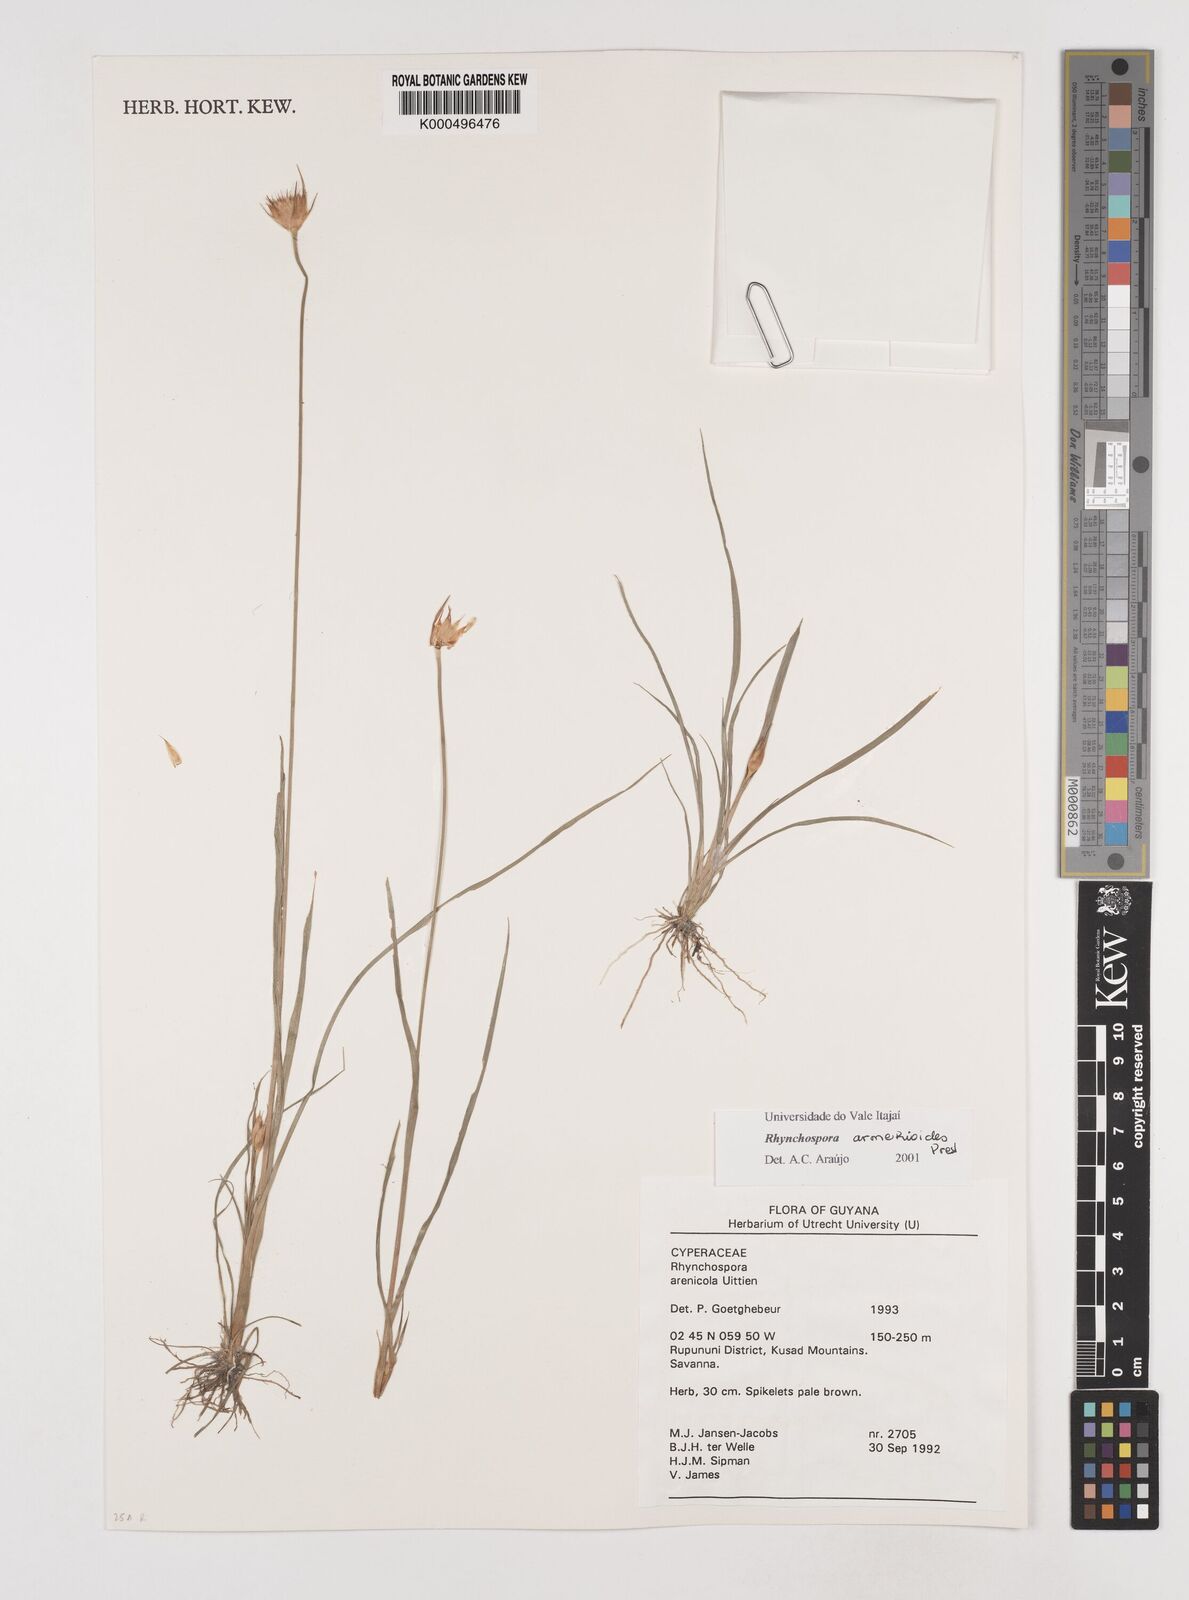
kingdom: Plantae
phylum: Tracheophyta
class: Liliopsida
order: Poales
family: Cyperaceae
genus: Rhynchospora
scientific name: Rhynchospora armerioides
